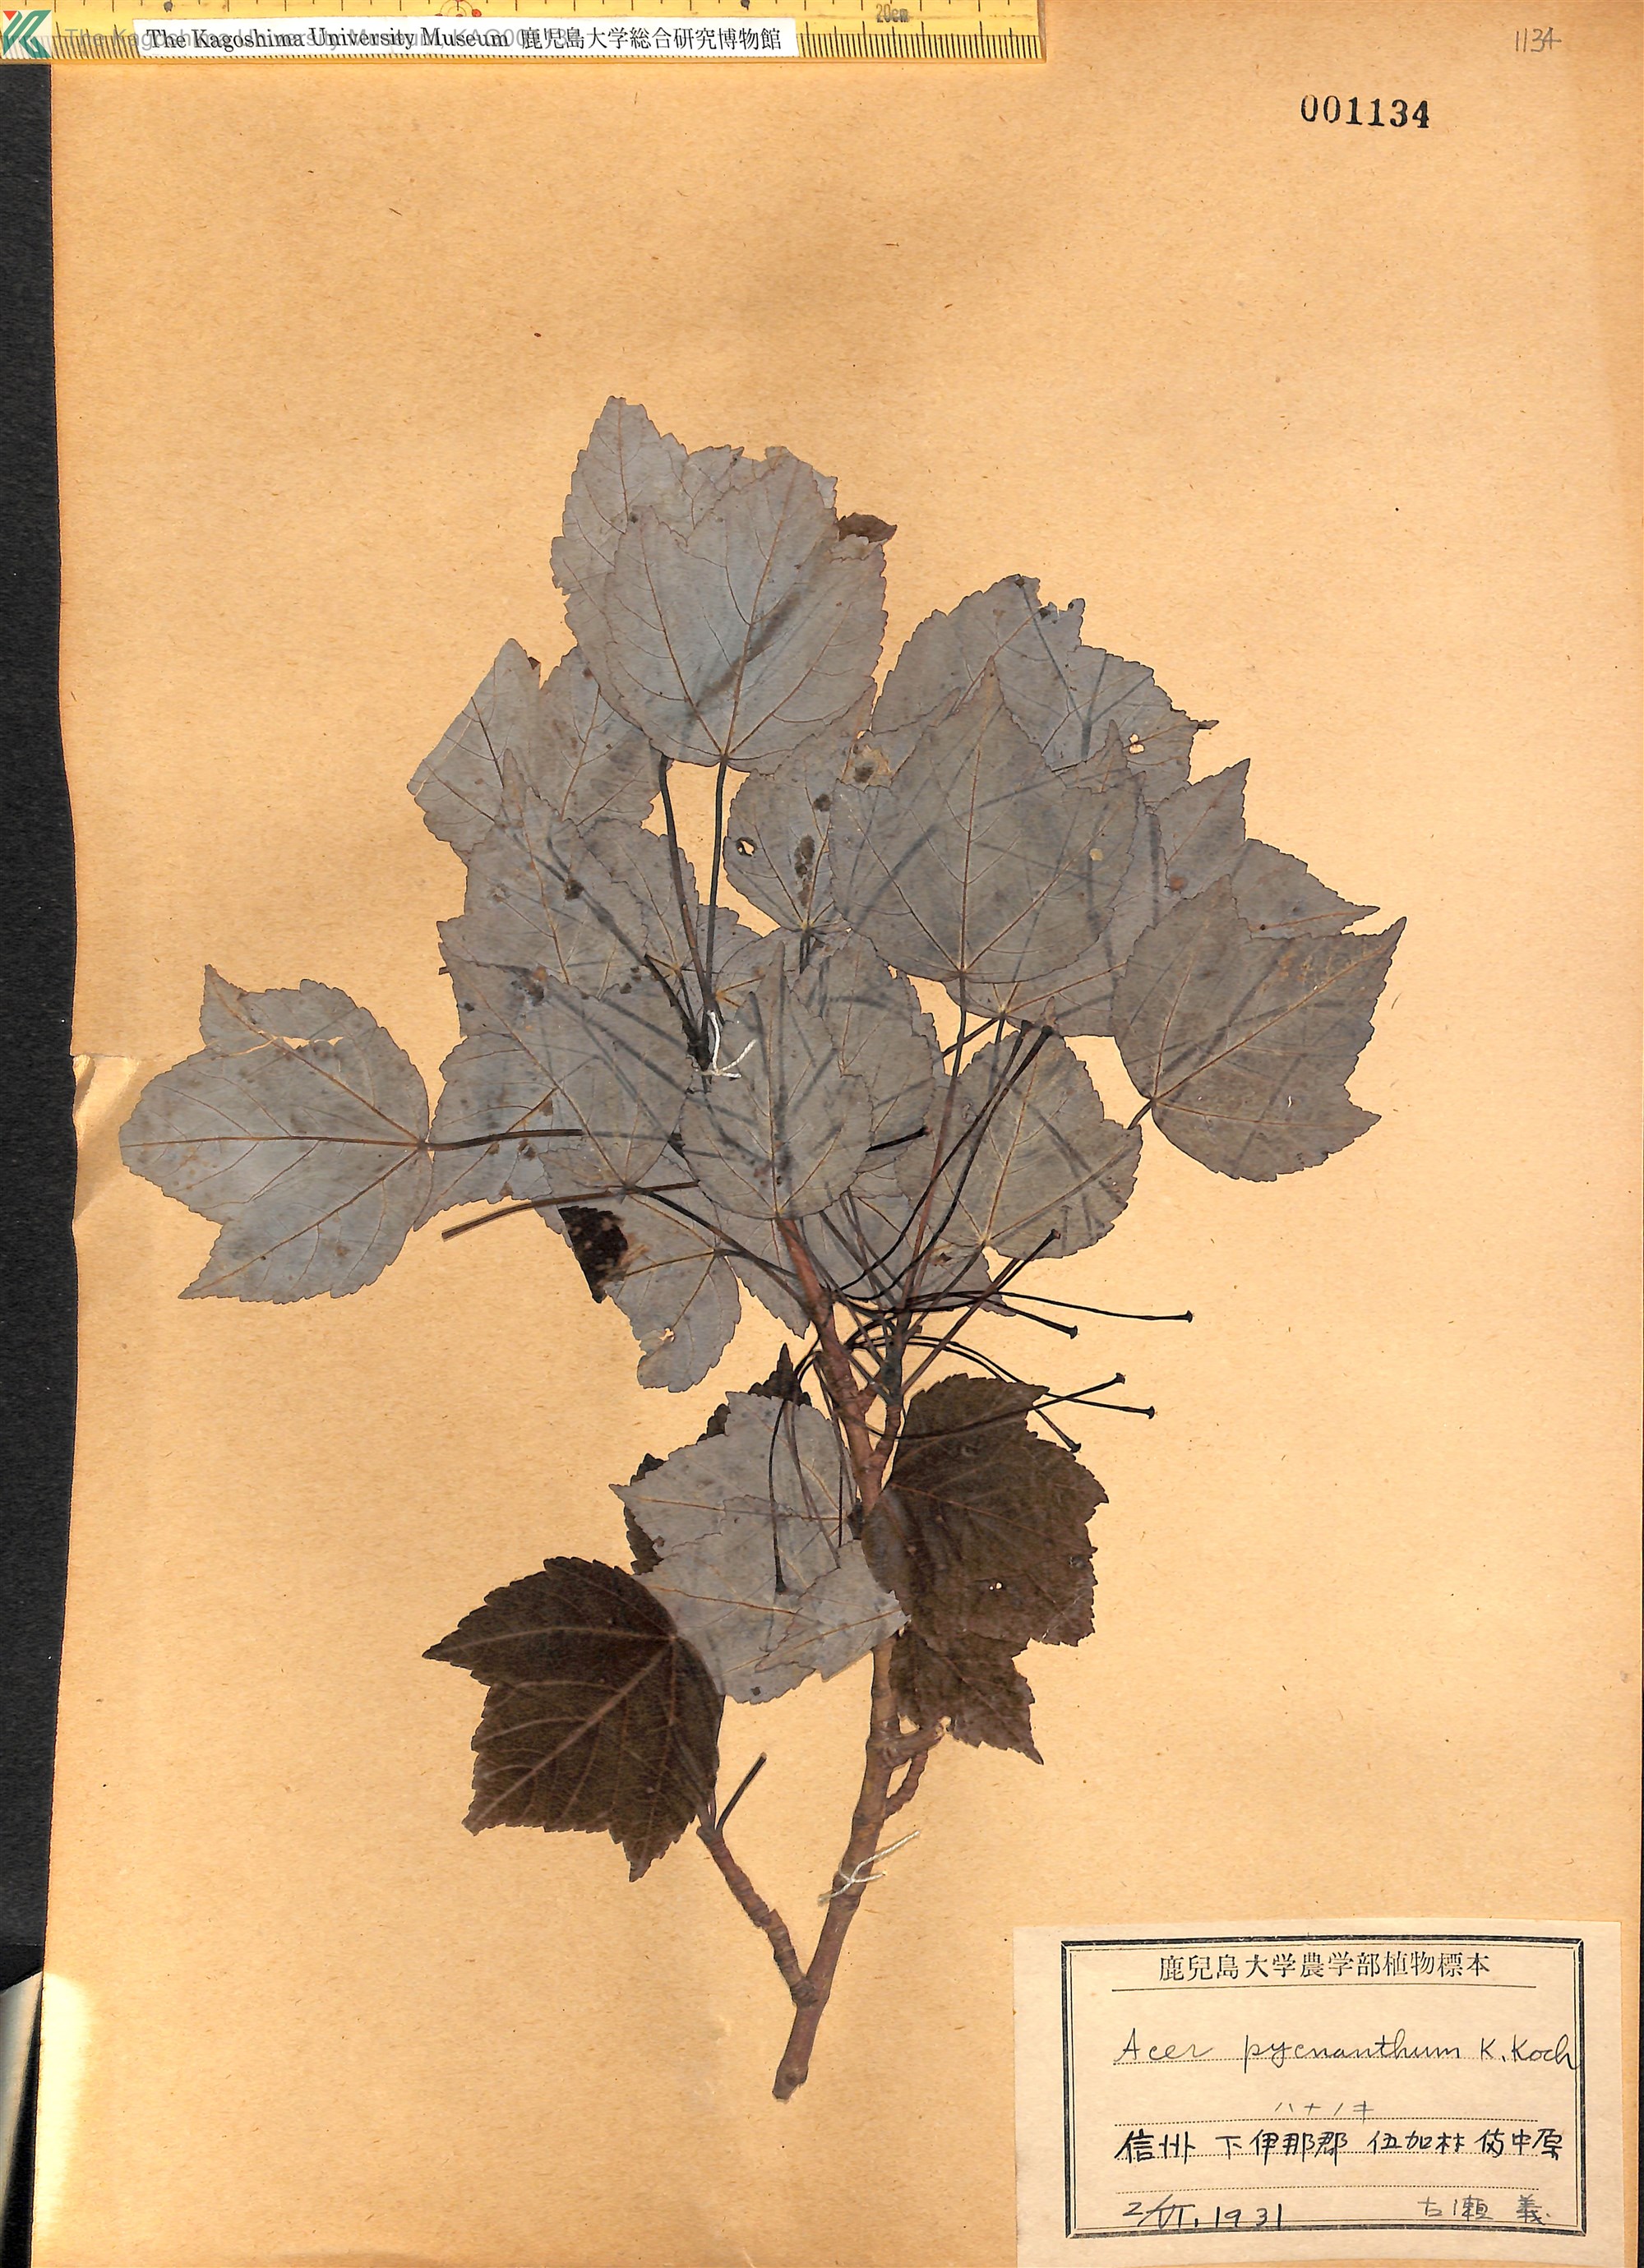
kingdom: Plantae
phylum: Tracheophyta
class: Magnoliopsida
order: Sapindales
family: Sapindaceae
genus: Acer
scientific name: Acer pycnanthum
